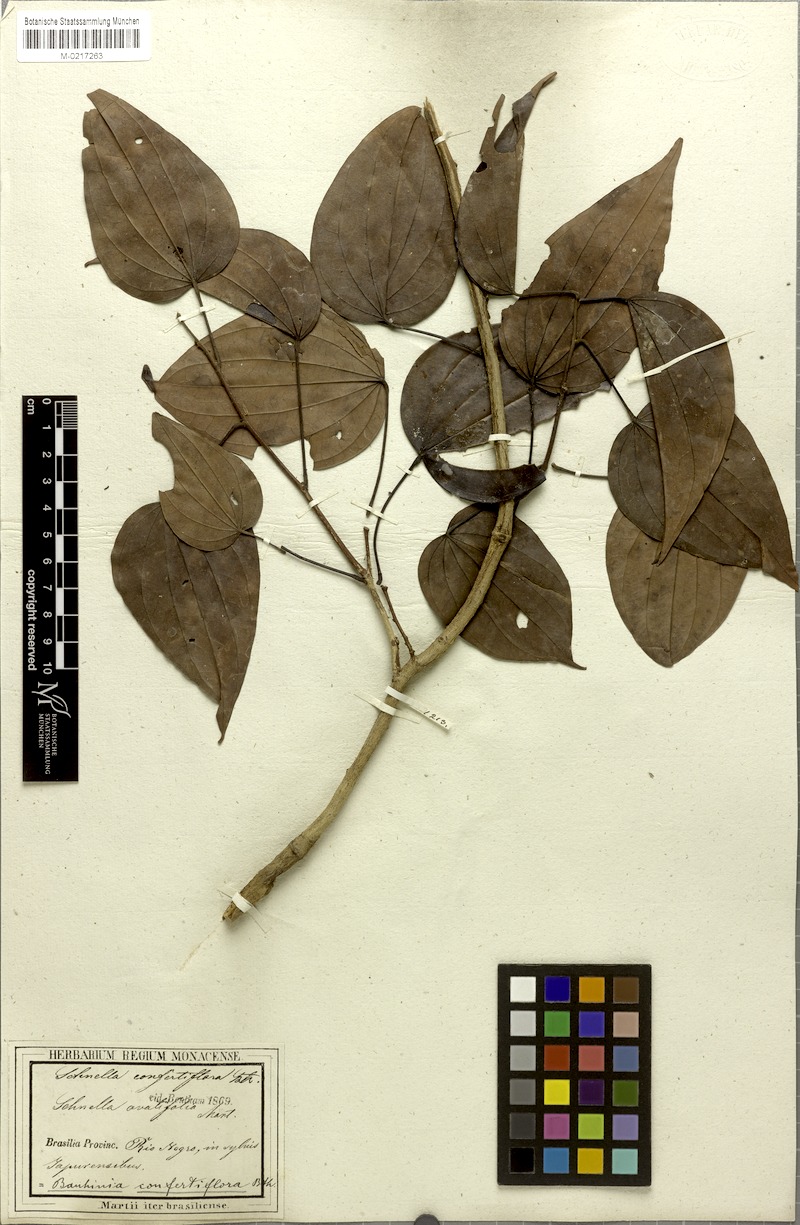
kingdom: Plantae
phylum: Tracheophyta
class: Magnoliopsida
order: Fabales
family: Fabaceae
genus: Schnella
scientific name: Schnella confertiflora
